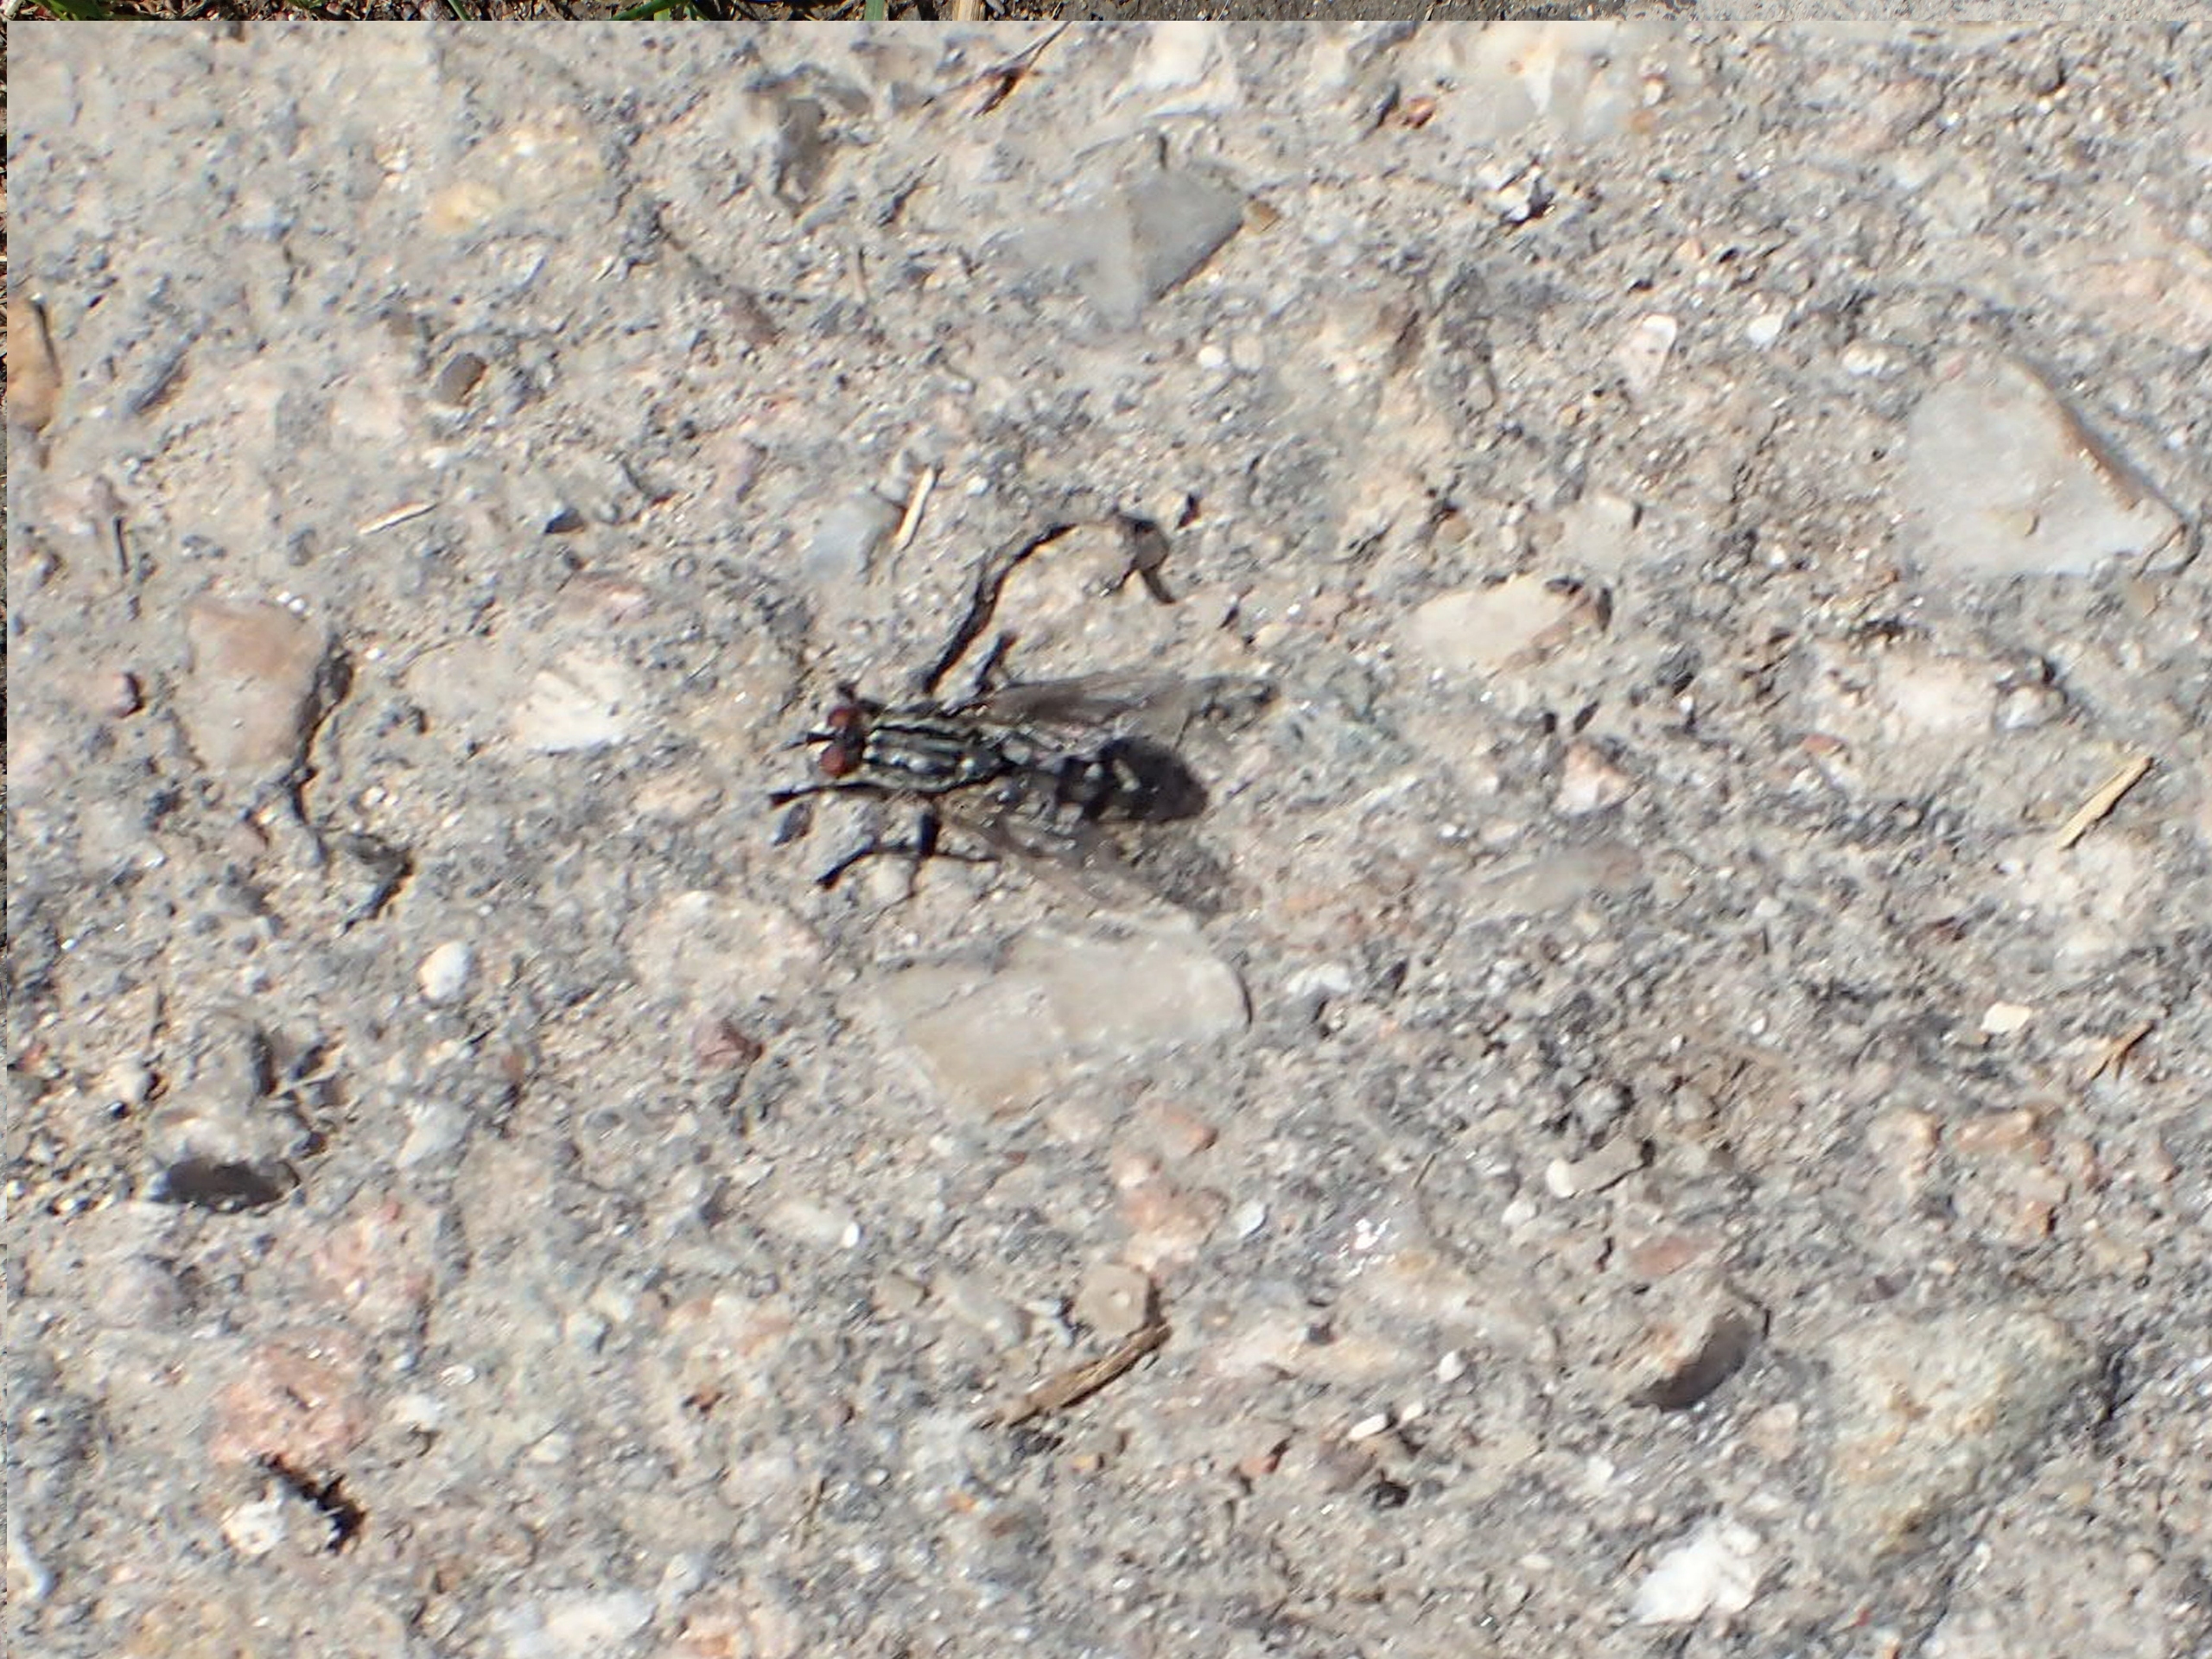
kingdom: Animalia
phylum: Arthropoda
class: Insecta
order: Diptera
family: Sarcophagidae
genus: Sarcophaga
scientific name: Sarcophaga
